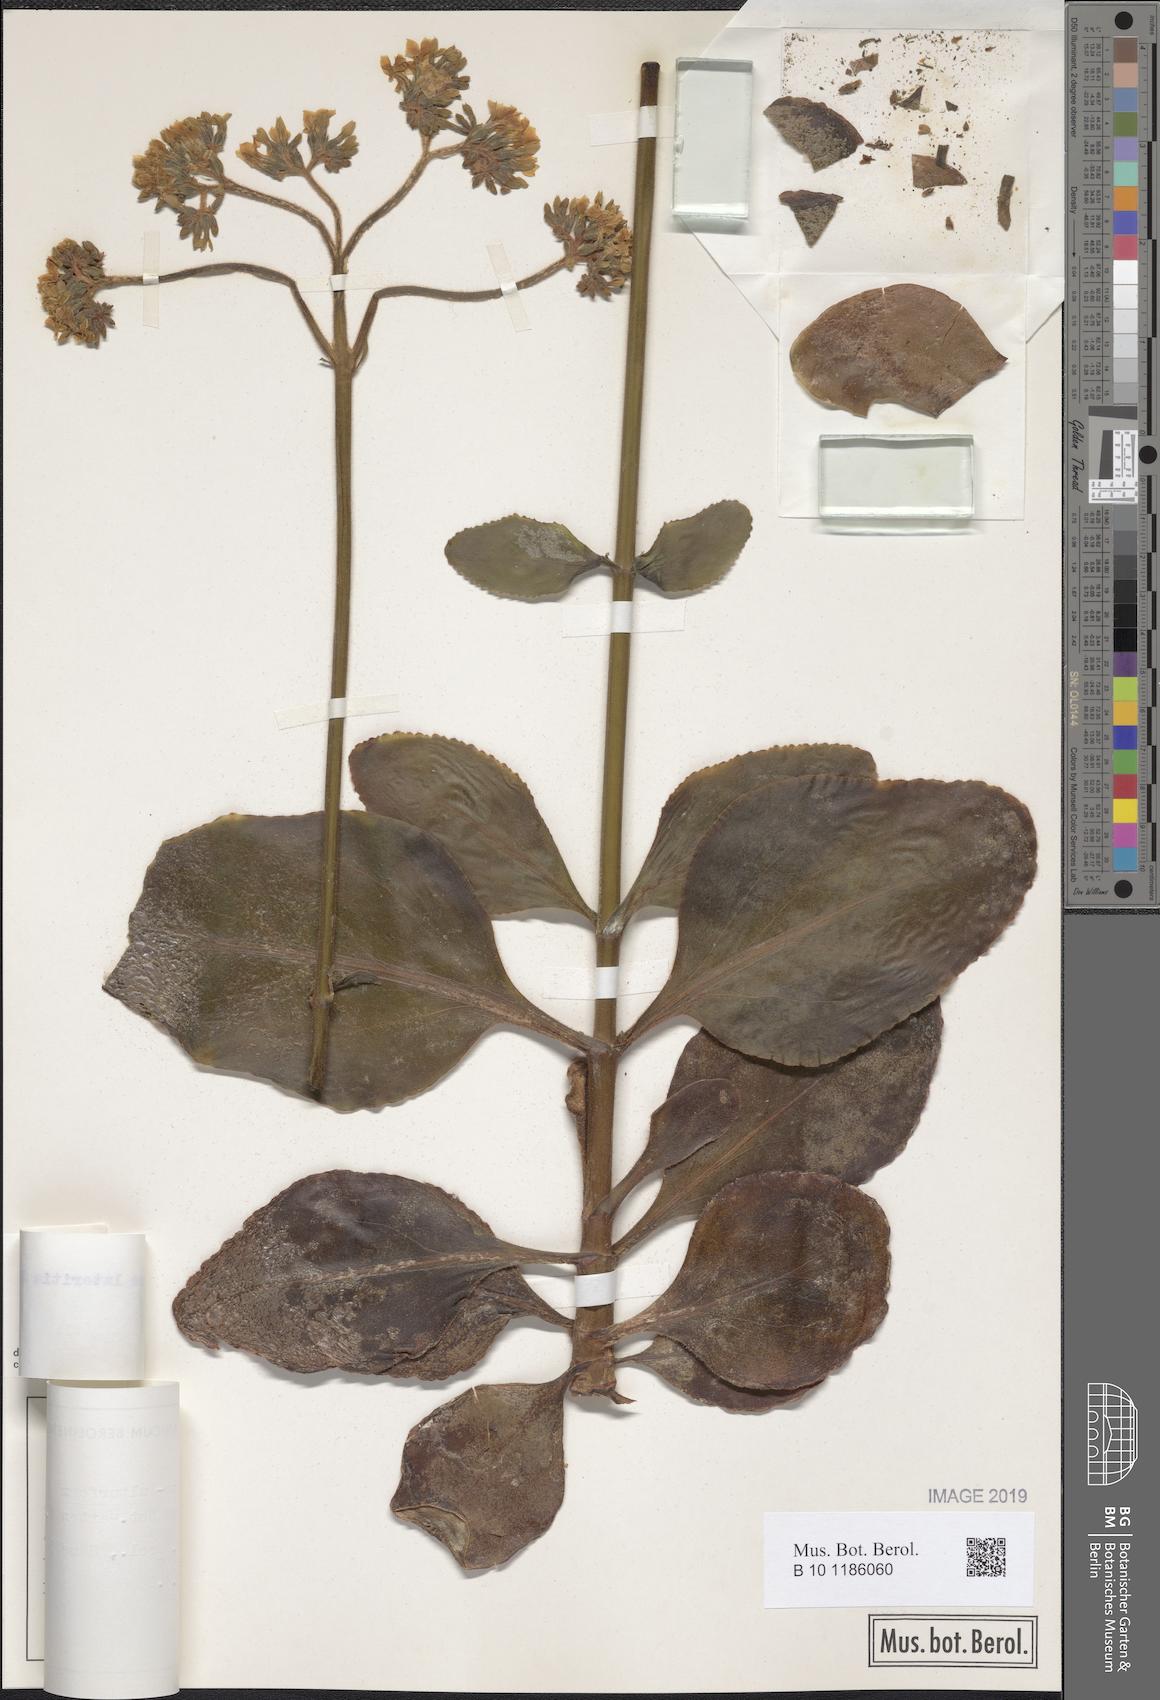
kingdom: Plantae
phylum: Tracheophyta
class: Magnoliopsida
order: Saxifragales
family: Crassulaceae
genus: Kalanchoe
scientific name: Kalanchoe lateritia
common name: Kalanchoe
